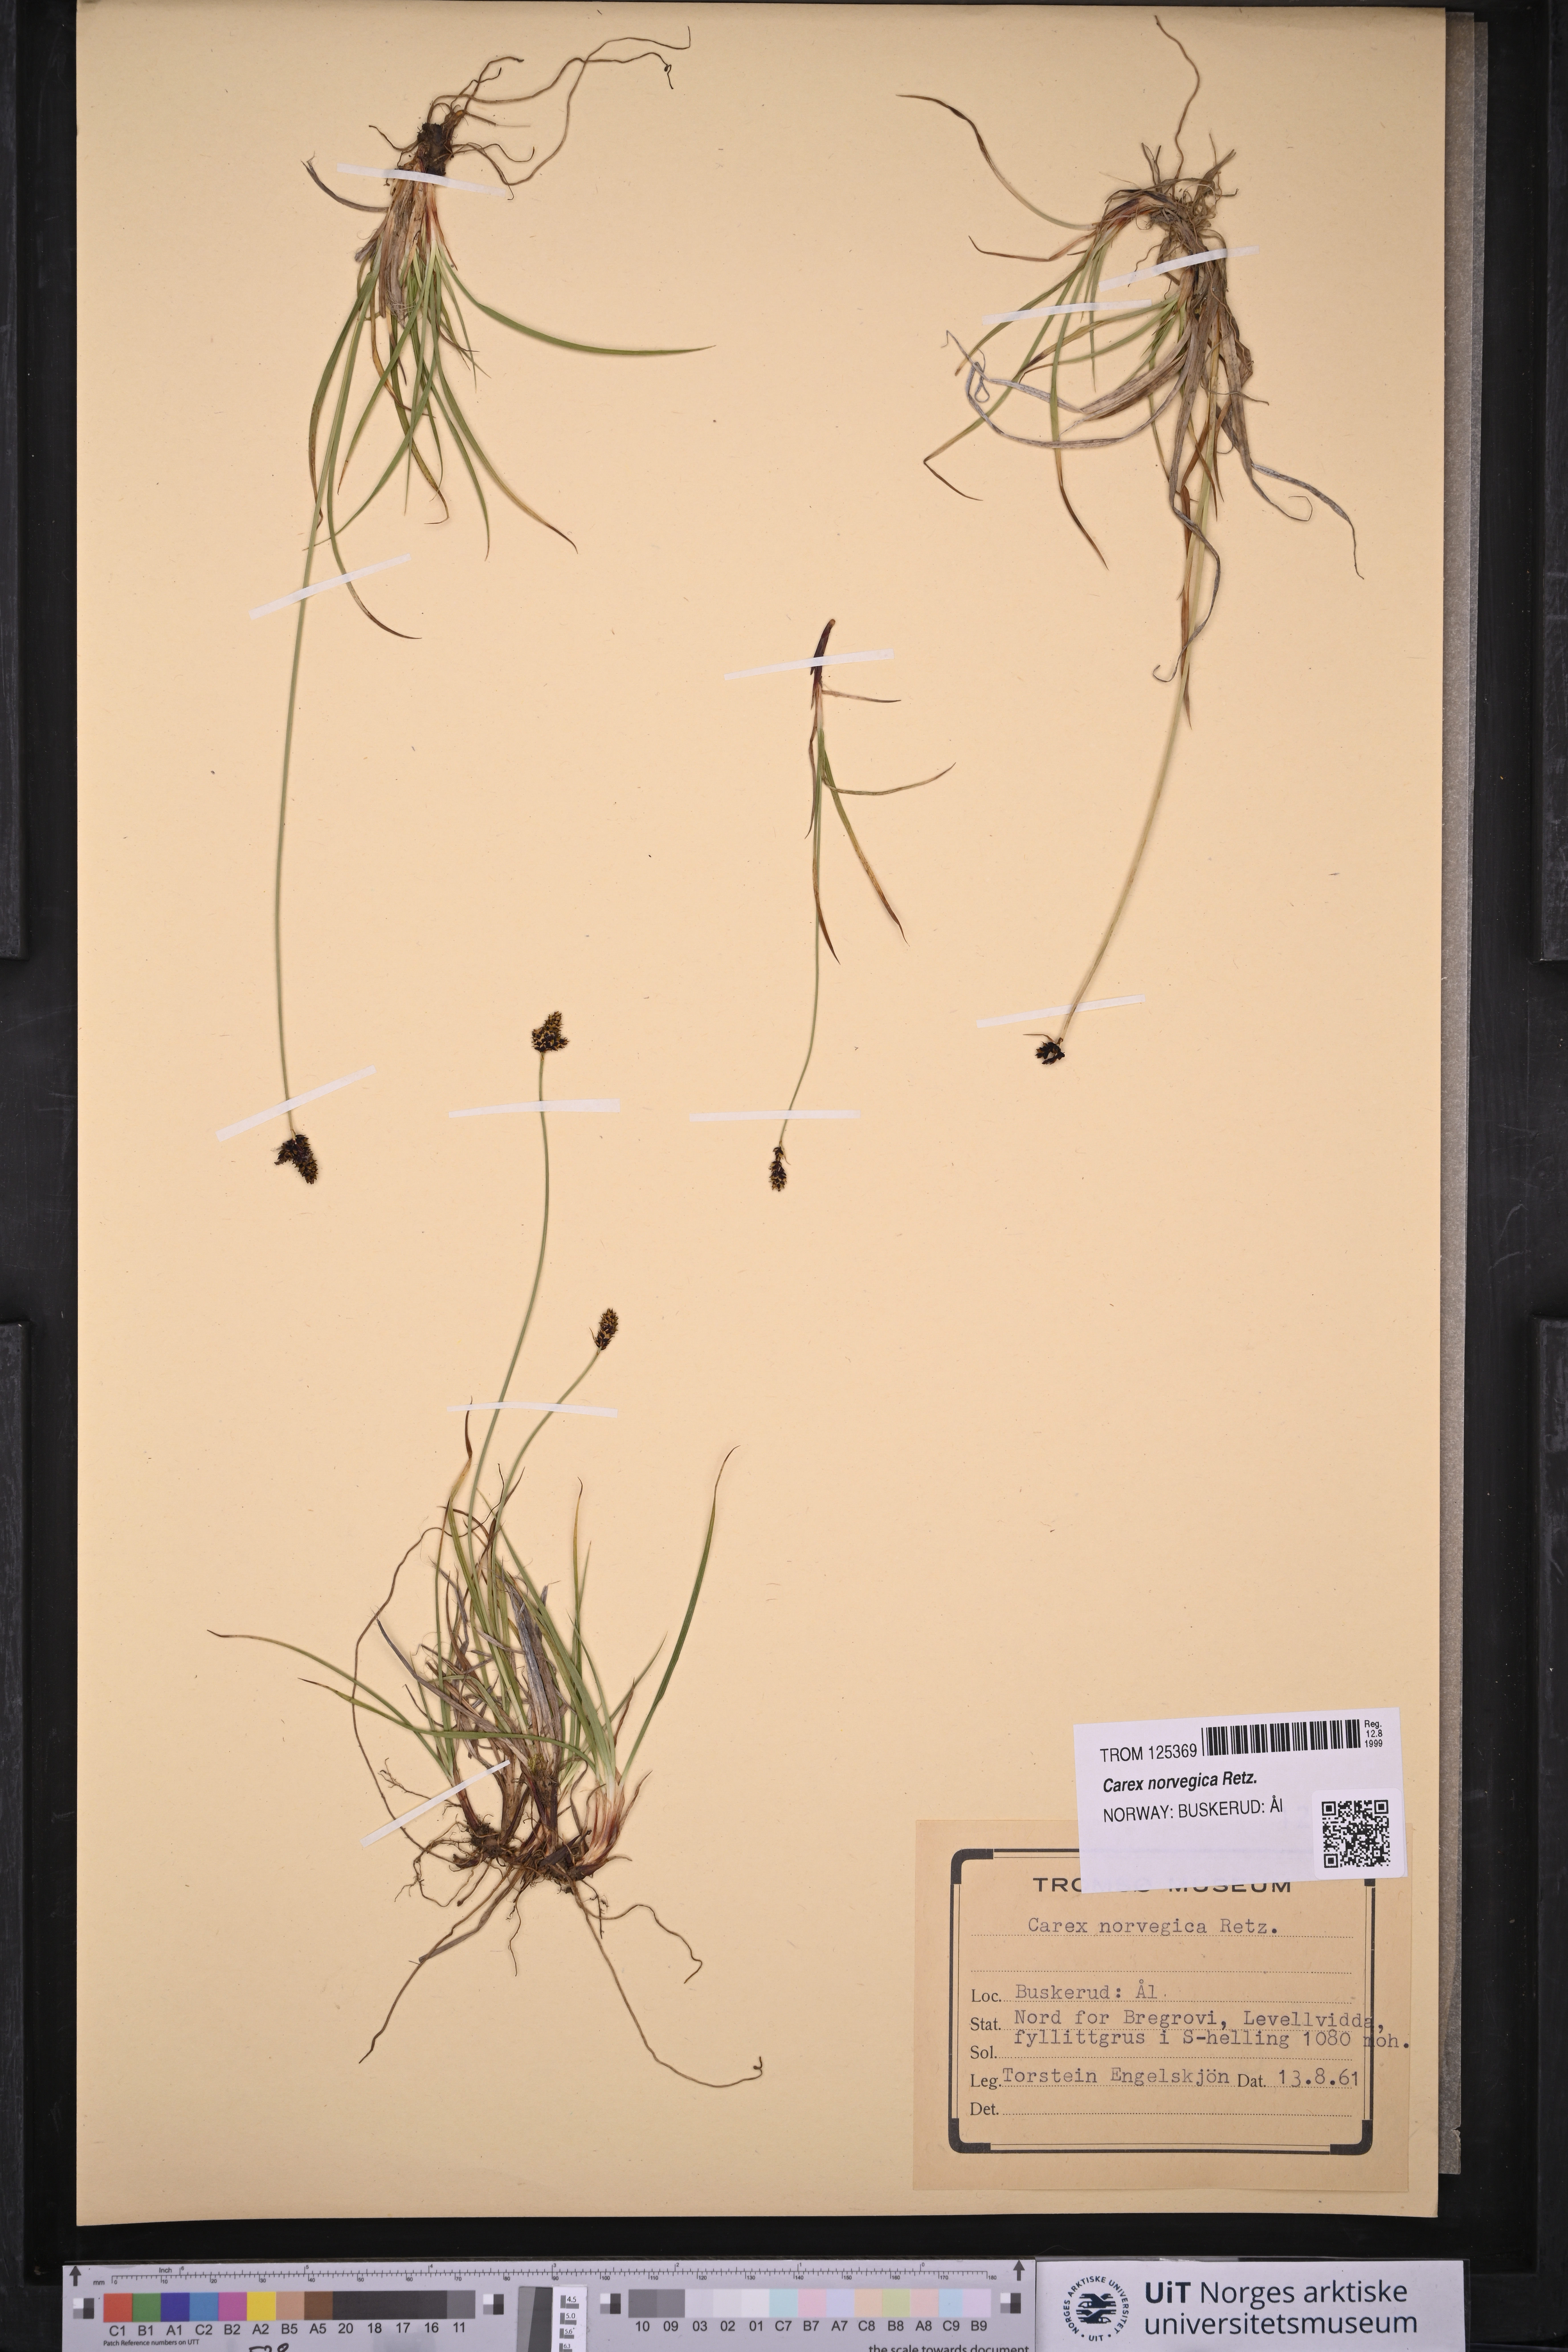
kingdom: Plantae
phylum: Tracheophyta
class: Liliopsida
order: Poales
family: Cyperaceae
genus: Carex
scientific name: Carex norvegica
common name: Close-headed alpine-sedge
